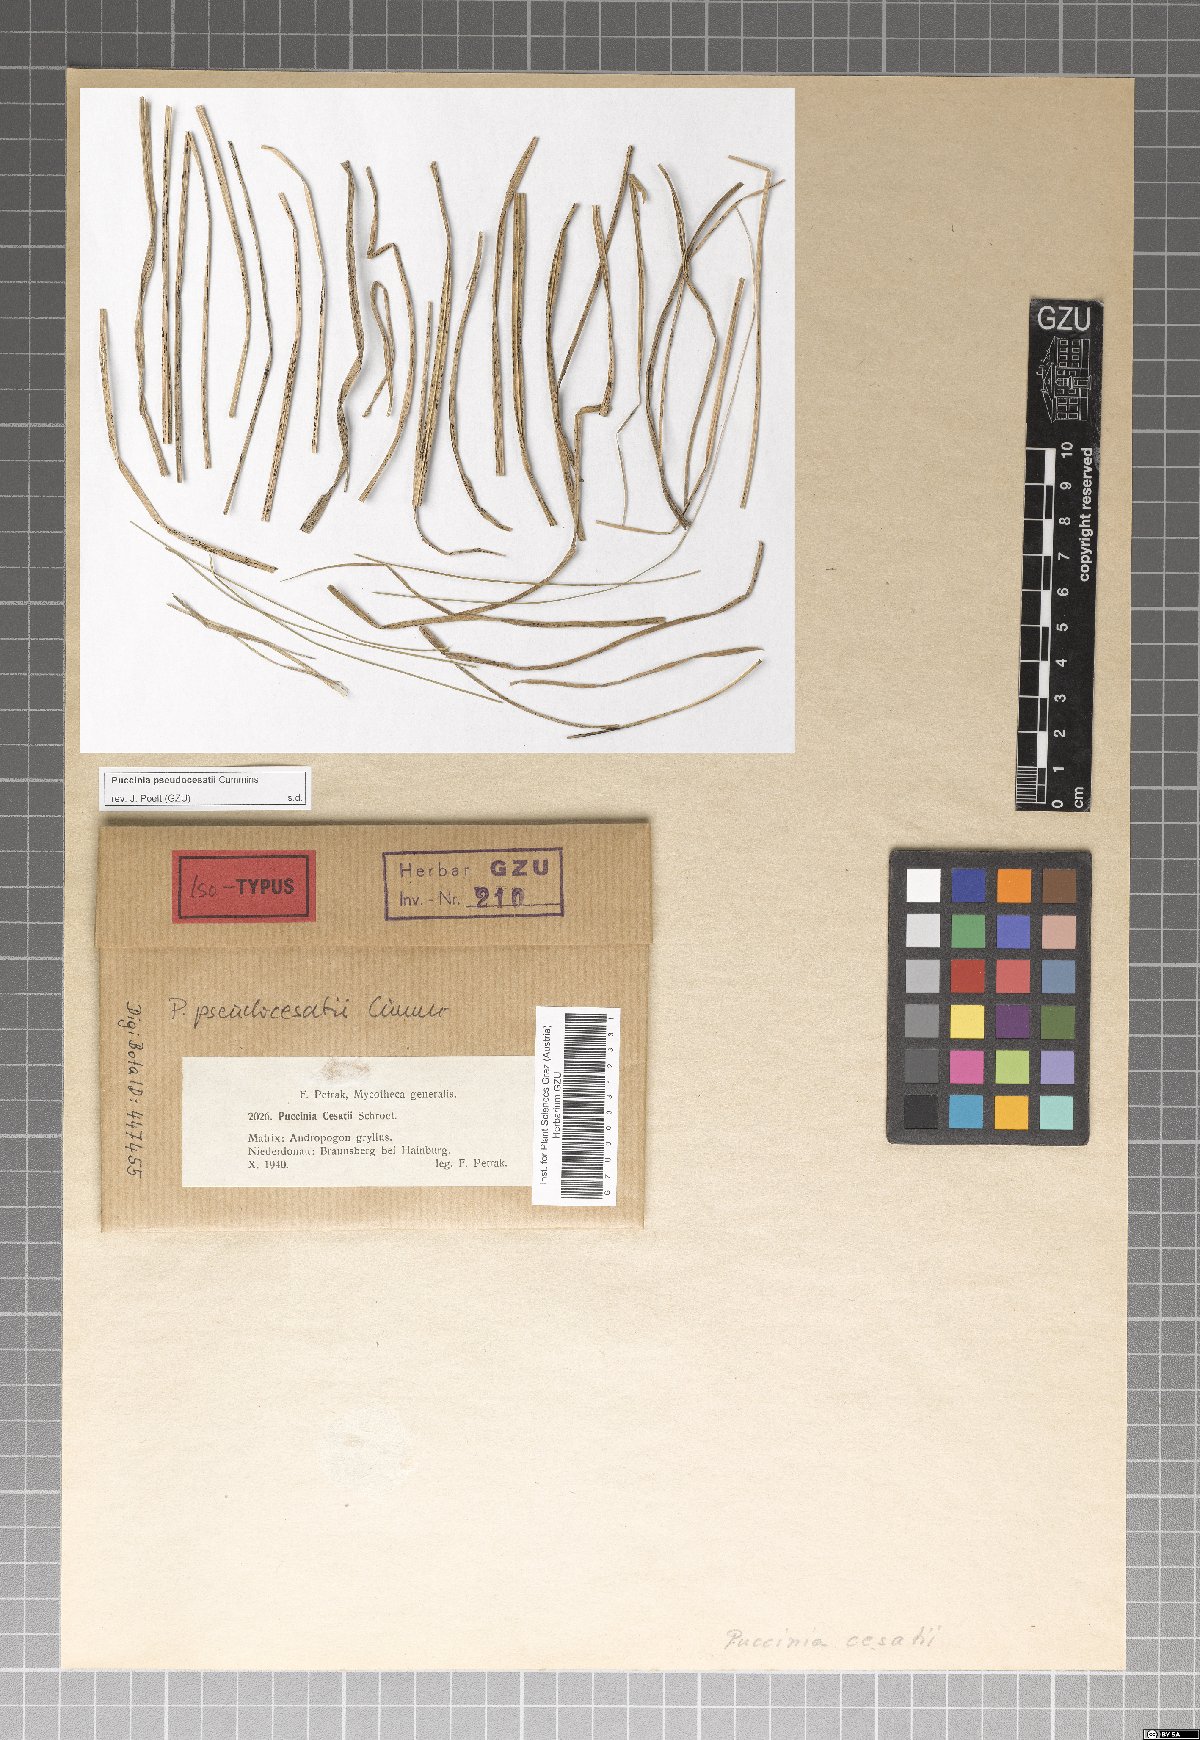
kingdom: Fungi
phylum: Basidiomycota
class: Pucciniomycetes
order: Pucciniales
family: Pucciniaceae
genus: Puccinia
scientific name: Puccinia pseudocesatii
